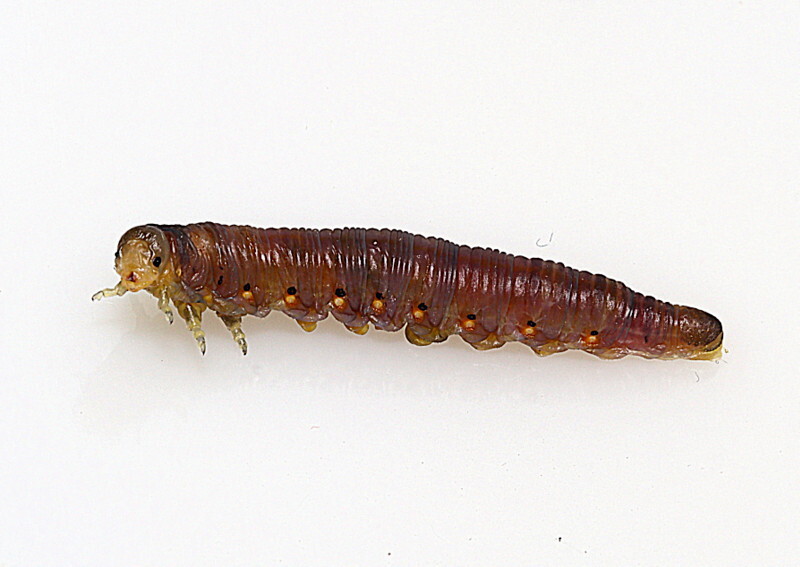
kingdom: Animalia
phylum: Arthropoda
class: Insecta
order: Hymenoptera
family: Diprionidae
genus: Macrodiprion
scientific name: Macrodiprion nemoralis
